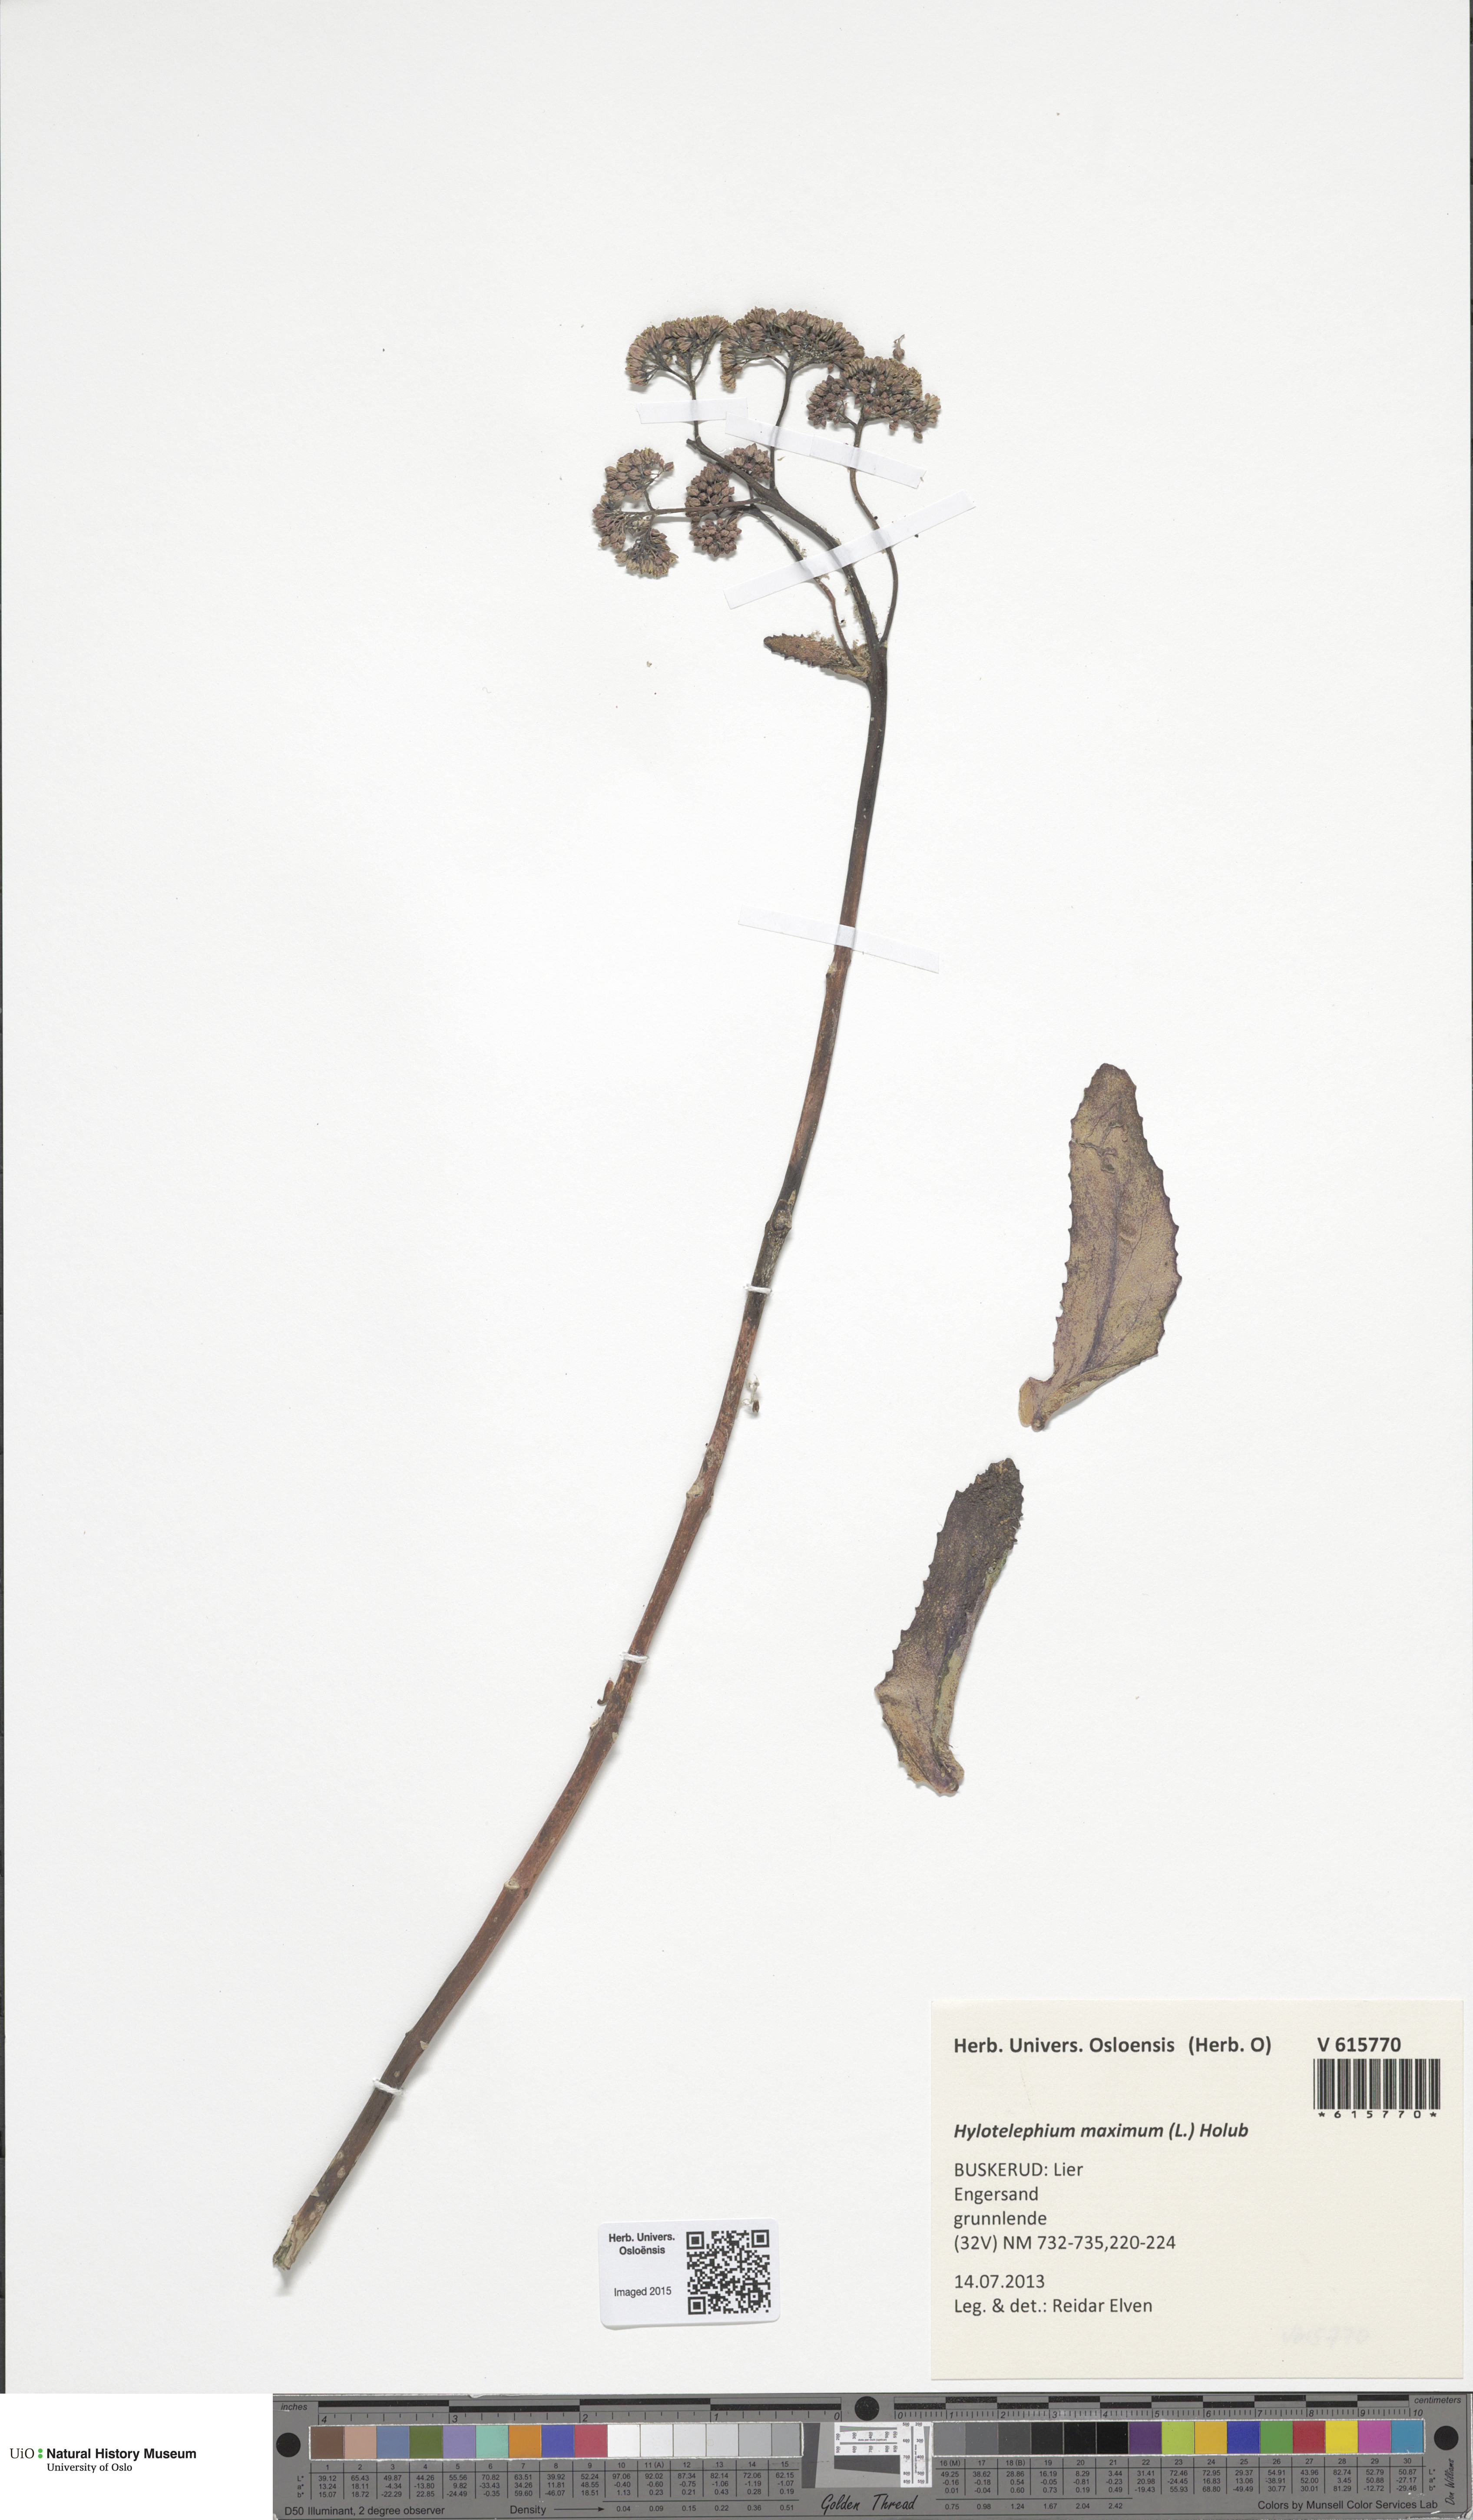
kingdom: Plantae
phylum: Tracheophyta
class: Magnoliopsida
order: Saxifragales
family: Crassulaceae
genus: Hylotelephium
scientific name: Hylotelephium maximum
